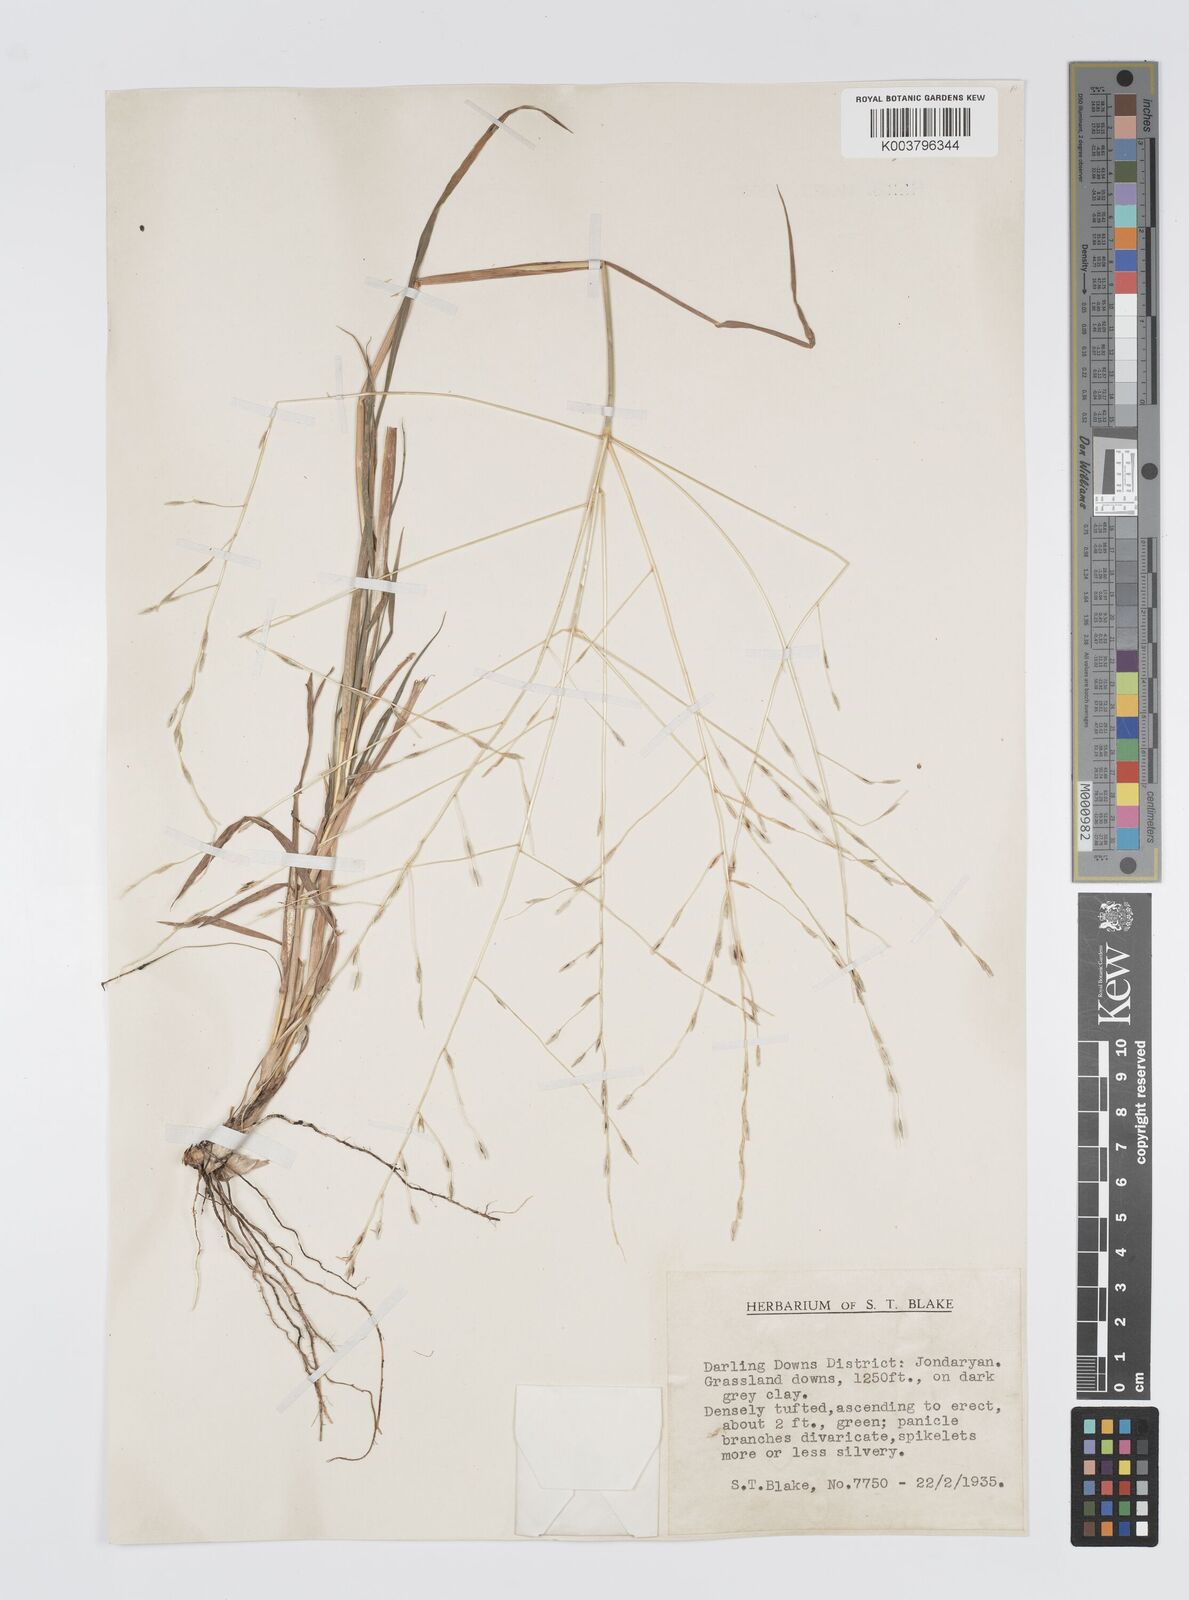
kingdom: Plantae
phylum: Tracheophyta
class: Liliopsida
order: Poales
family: Poaceae
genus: Digitaria
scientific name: Digitaria divaricatissima
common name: Crabgrass
